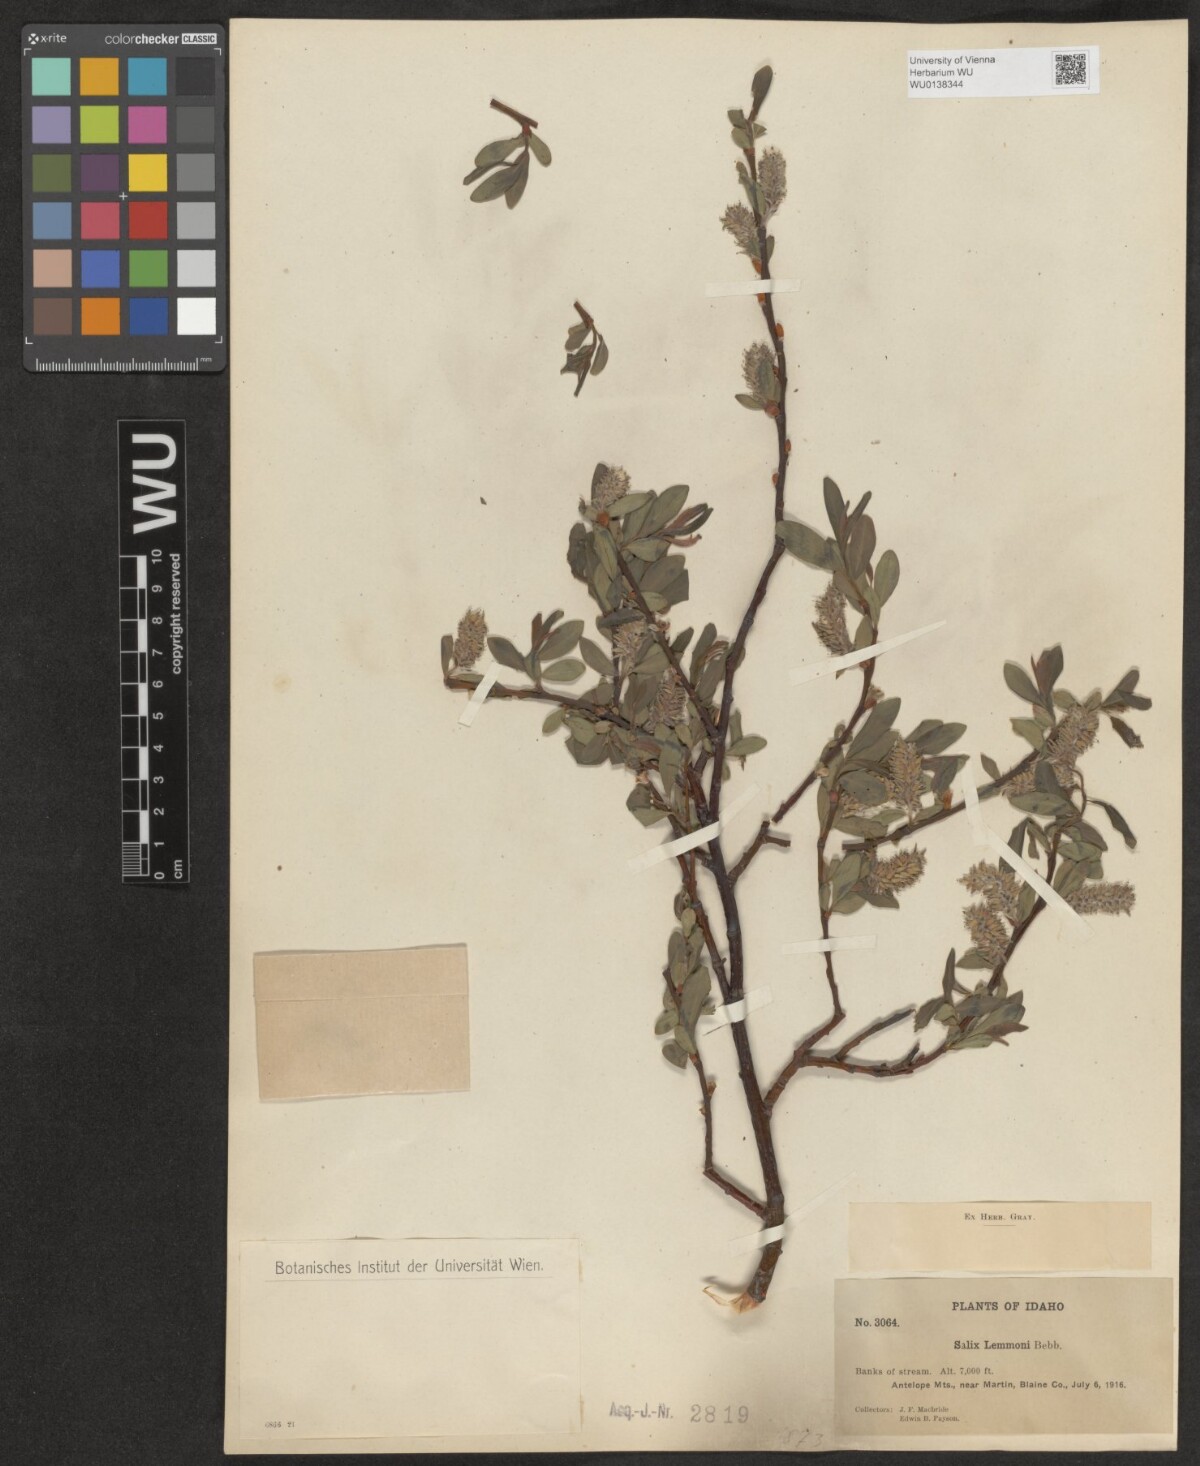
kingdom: Plantae
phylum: Tracheophyta
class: Magnoliopsida
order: Malpighiales
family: Salicaceae
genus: Salix
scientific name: Salix lemmonii
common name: Lemmon's willow
